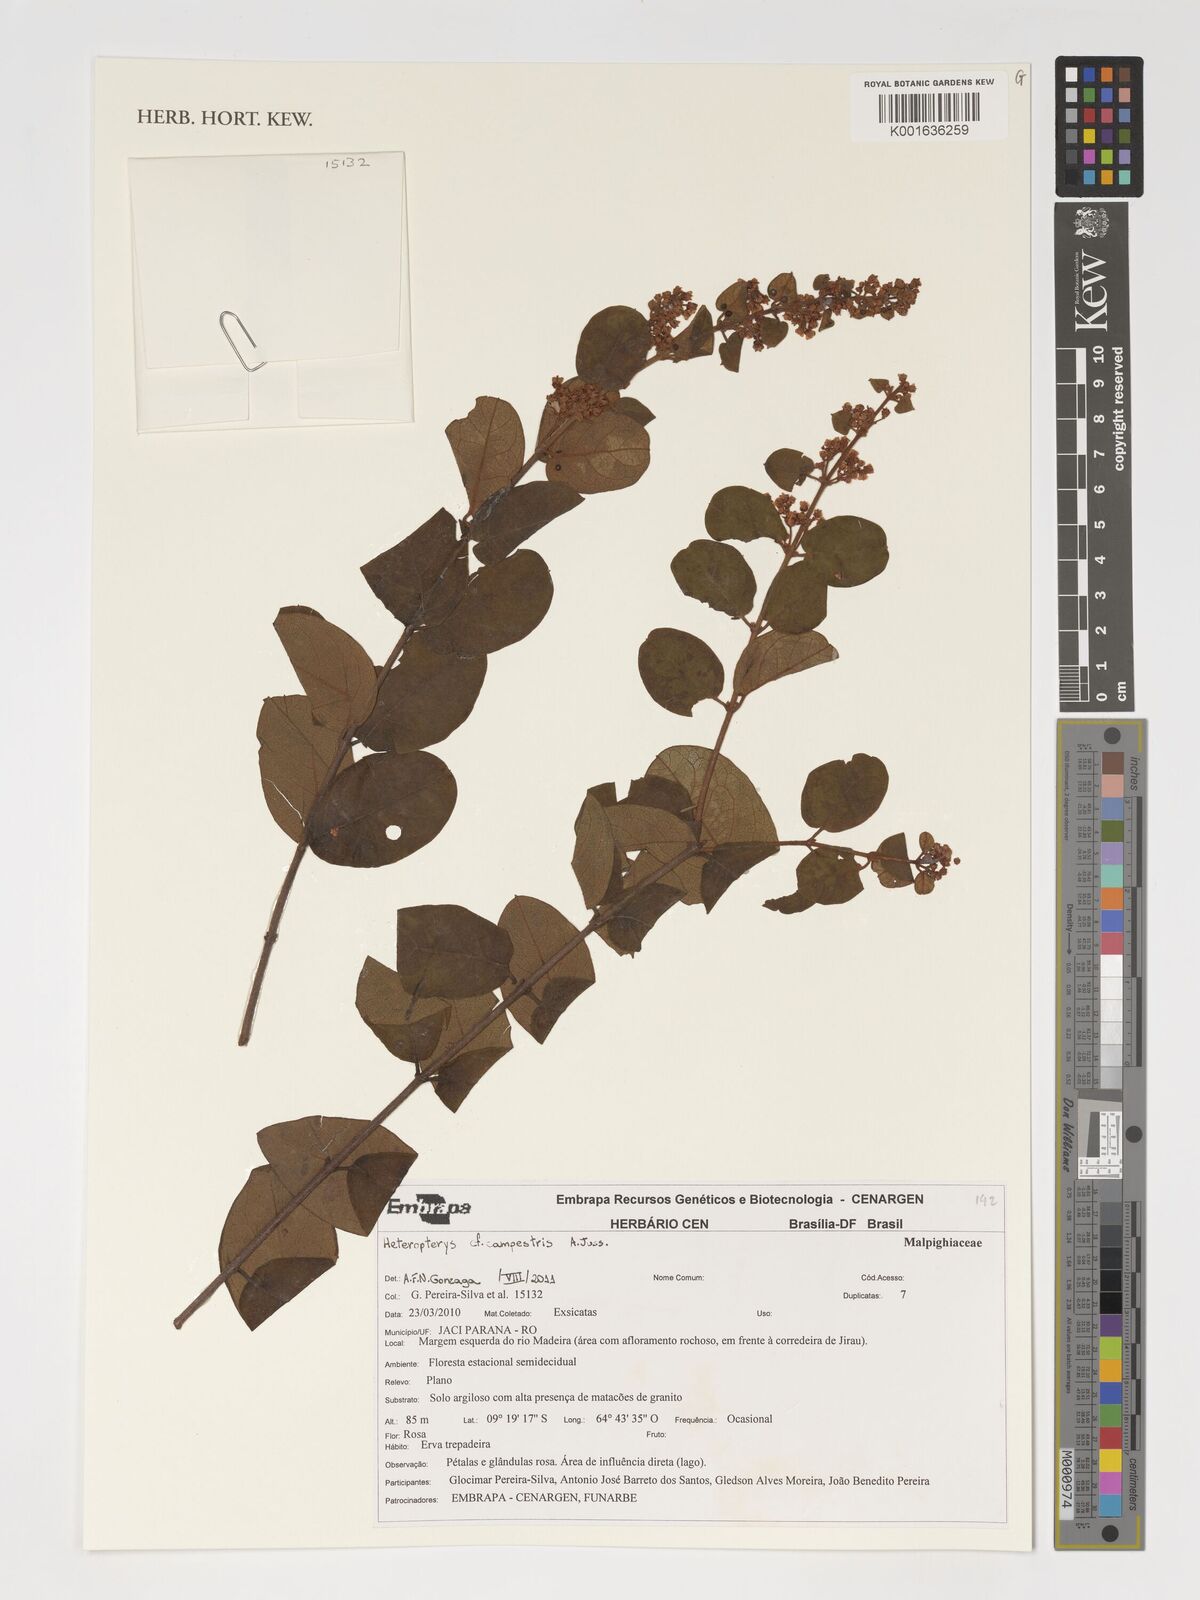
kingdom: Plantae
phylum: Tracheophyta
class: Magnoliopsida
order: Malpighiales
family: Malpighiaceae
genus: Heteropterys
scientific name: Heteropterys campestris
